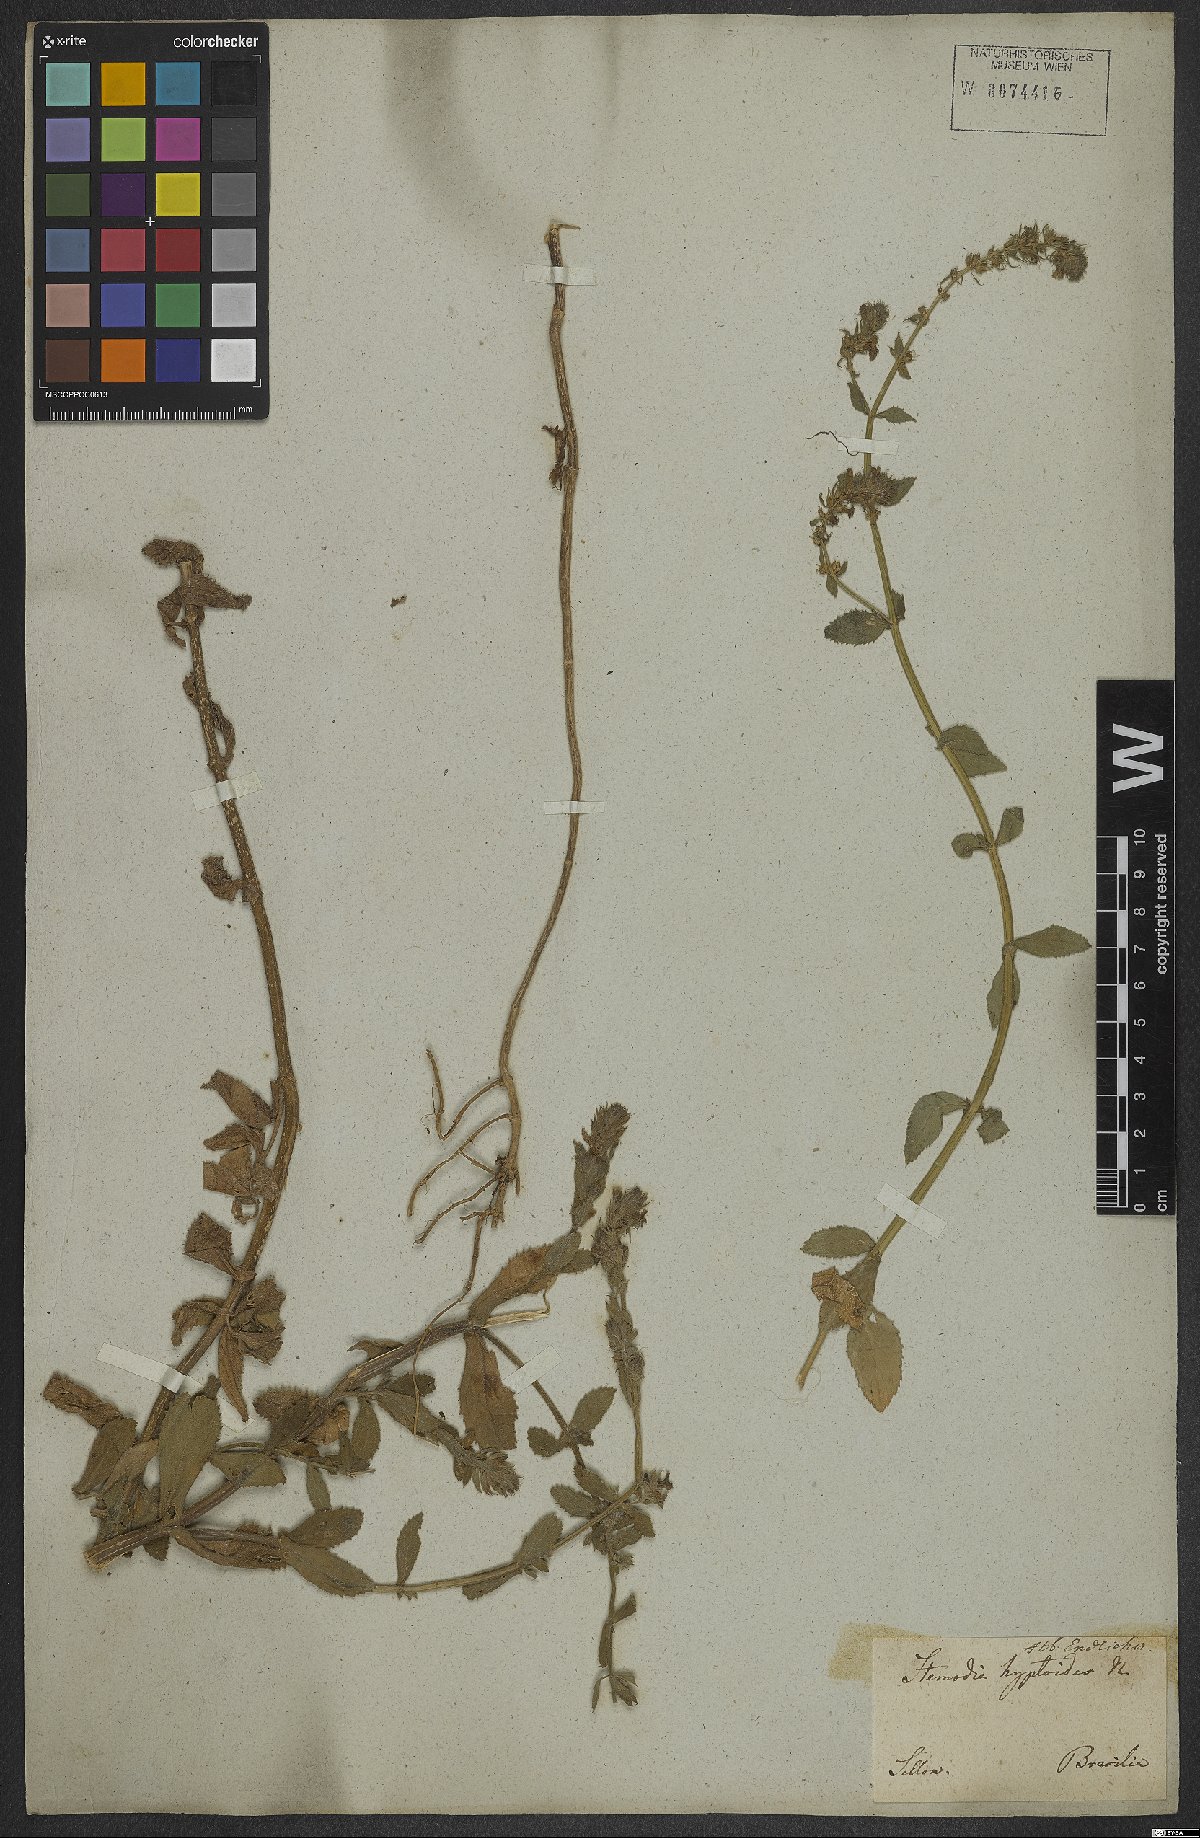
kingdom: Plantae
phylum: Tracheophyta
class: Magnoliopsida
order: Lamiales
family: Plantaginaceae
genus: Stemodia
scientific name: Stemodia hyptoides
